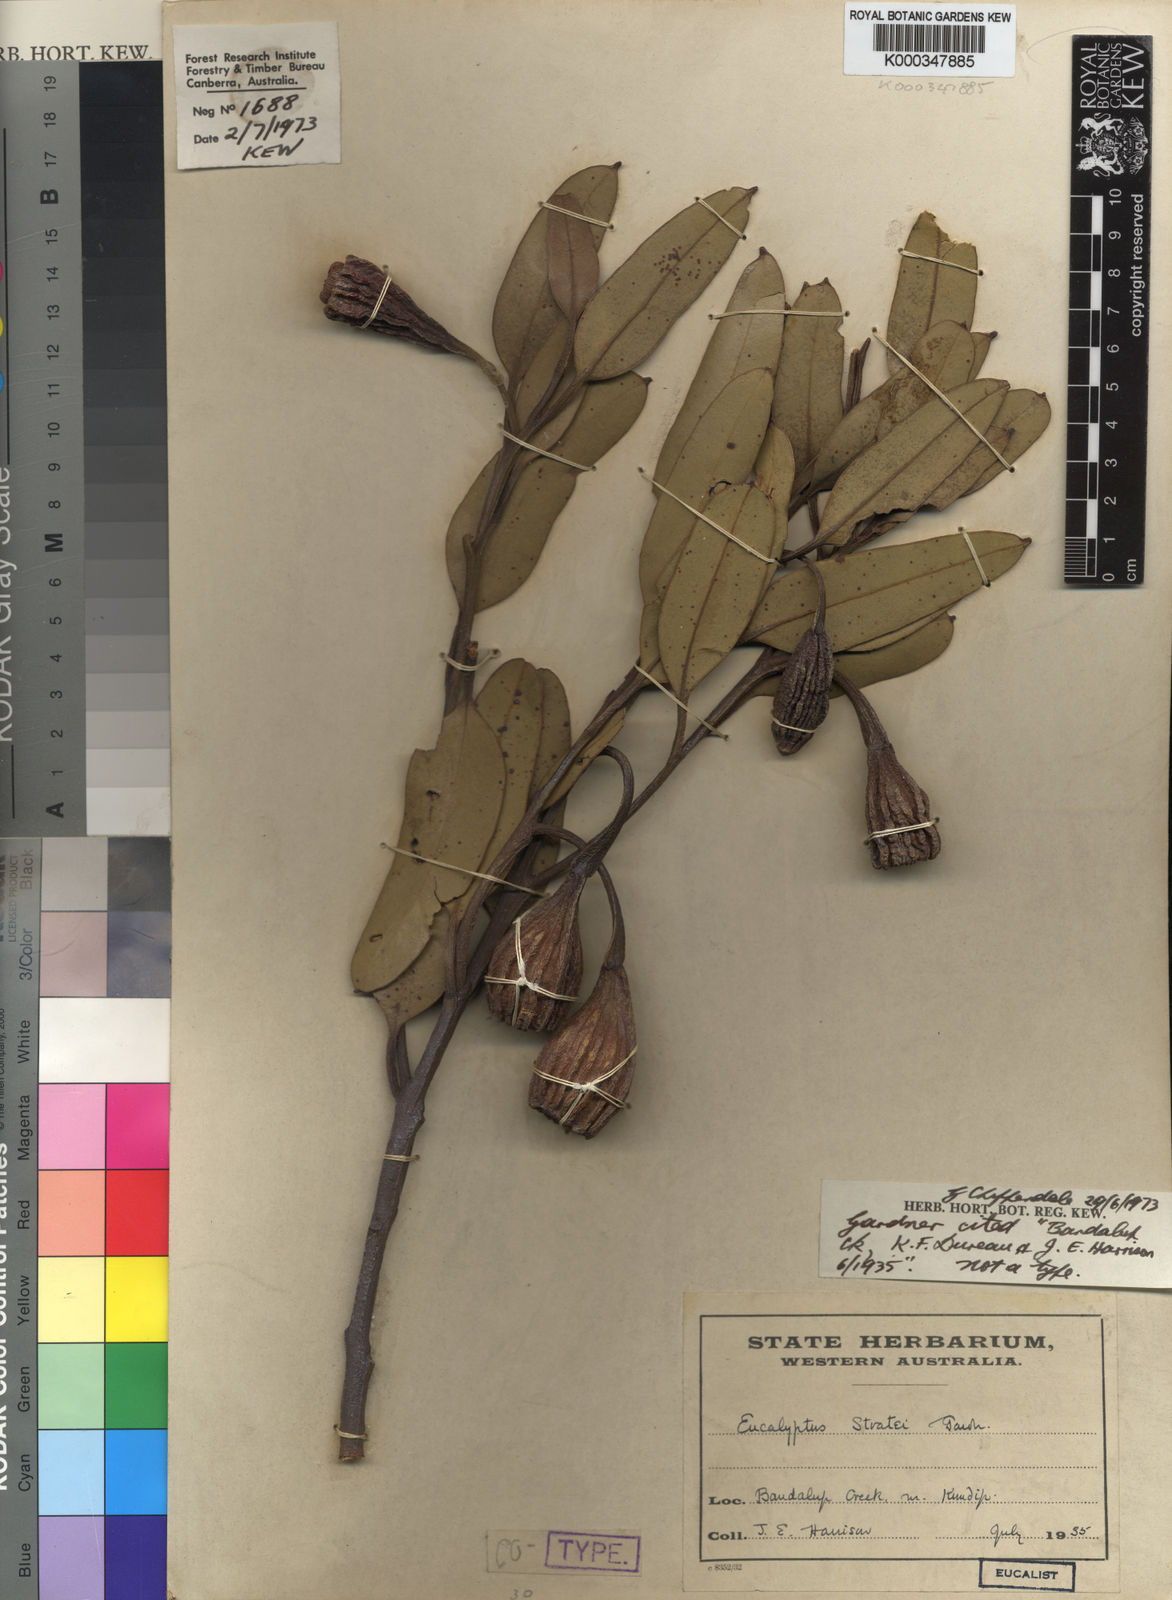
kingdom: Plantae
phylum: Tracheophyta
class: Magnoliopsida
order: Myrtales
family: Myrtaceae
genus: Eucalyptus
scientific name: Eucalyptus stoatei
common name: Scarlet pear gum
